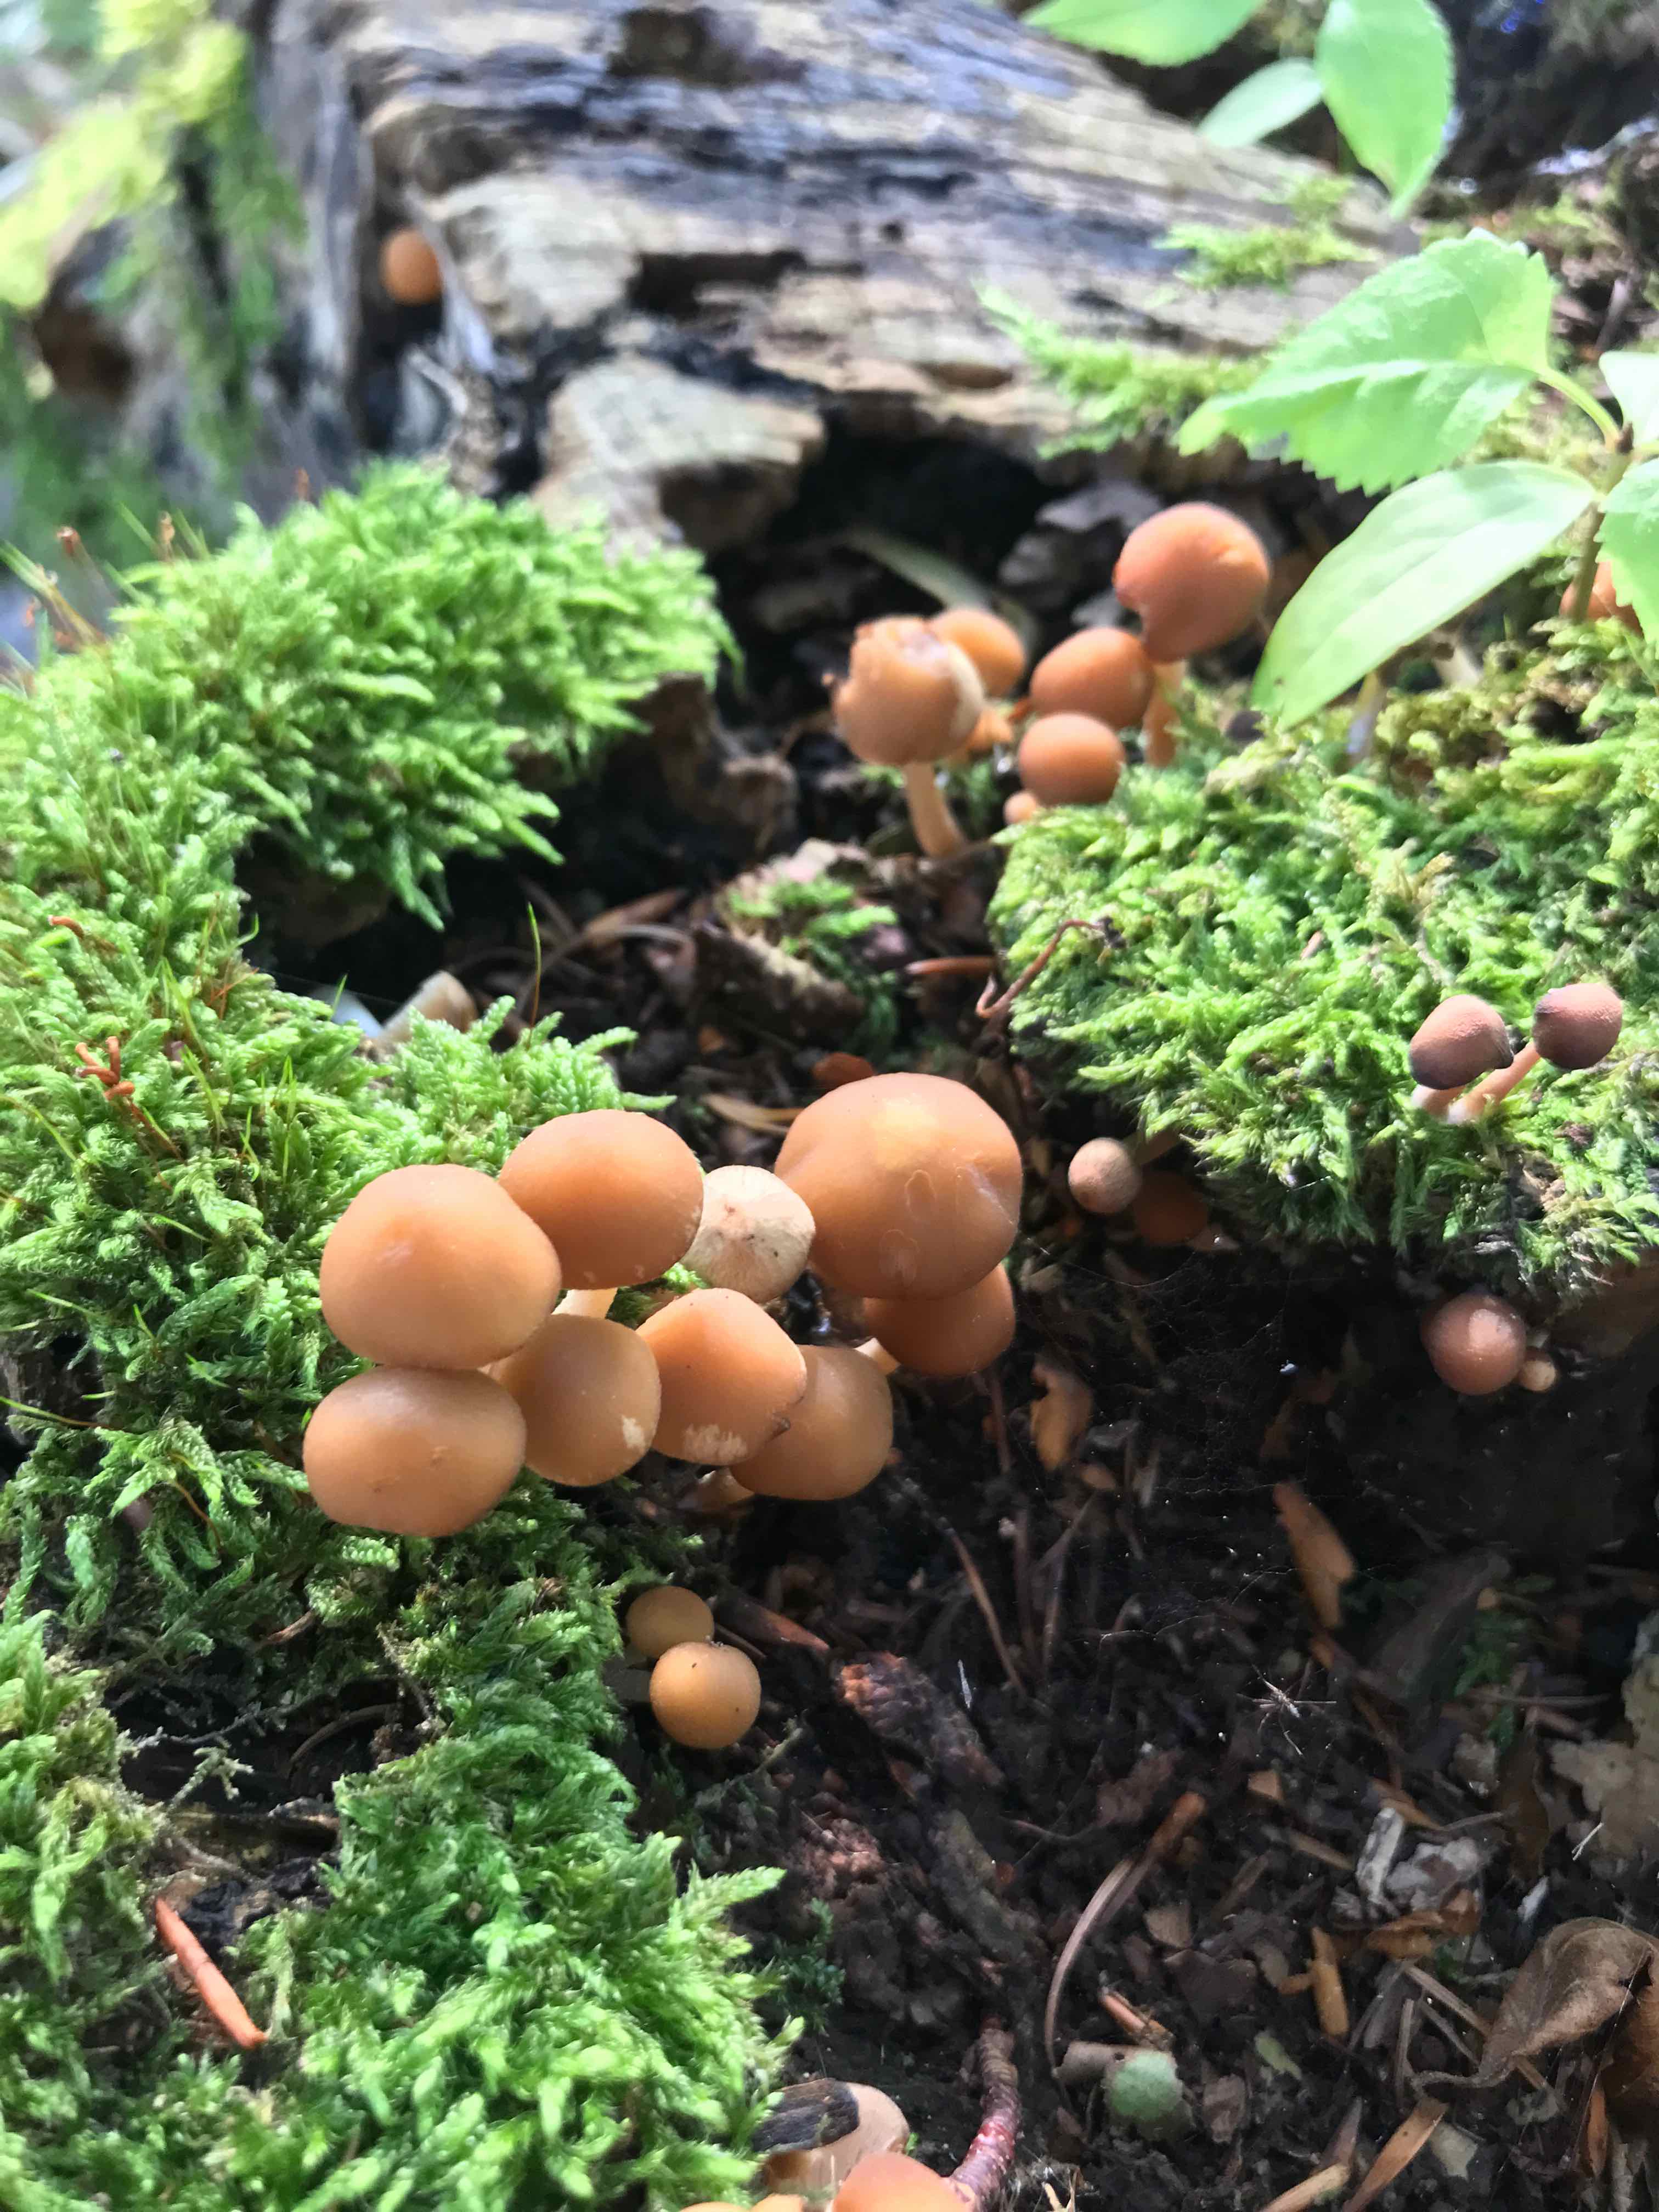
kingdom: Fungi
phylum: Basidiomycota
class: Agaricomycetes
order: Agaricales
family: Psathyrellaceae
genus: Psathyrella
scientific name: Psathyrella piluliformis
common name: lysstokket mørkhat
